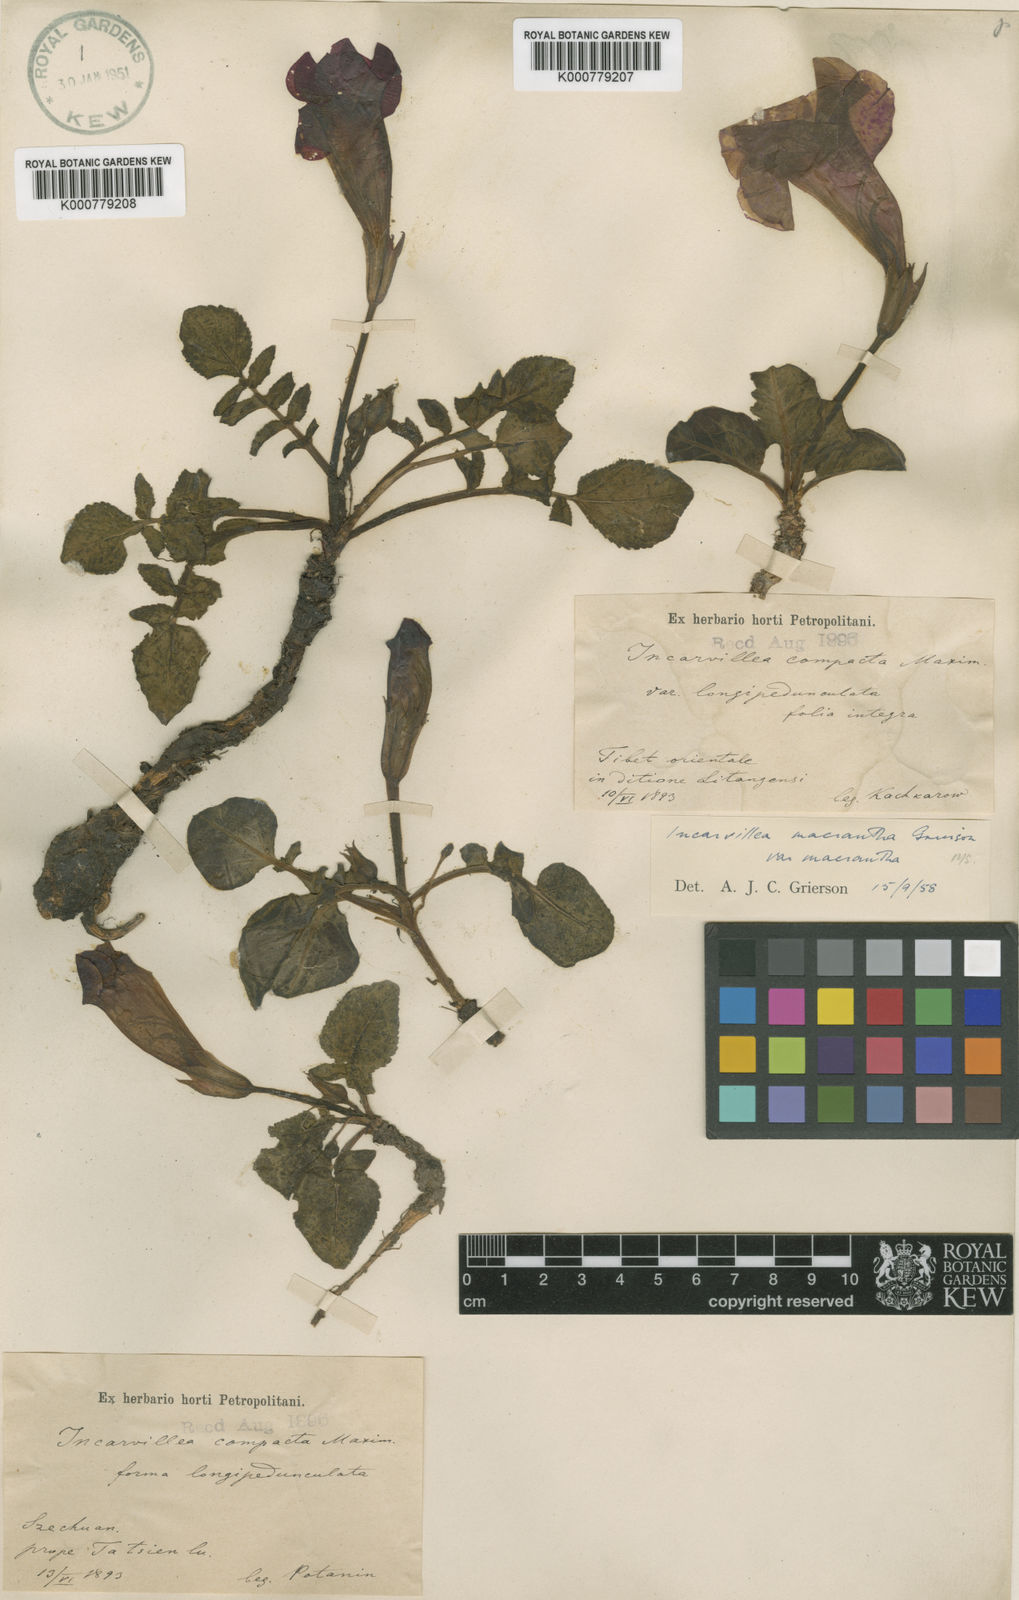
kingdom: Plantae
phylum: Tracheophyta
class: Magnoliopsida
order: Lamiales
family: Bignoniaceae
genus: Incarvillea
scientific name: Incarvillea
